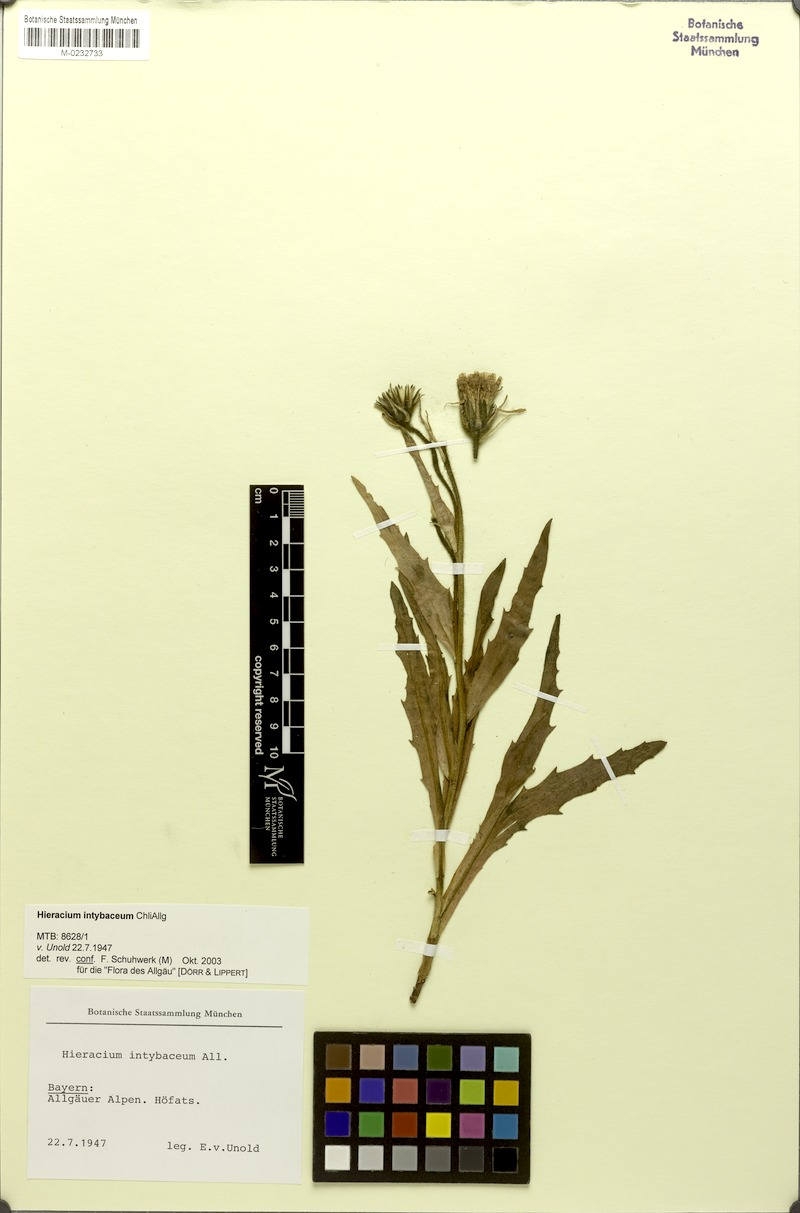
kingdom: Plantae
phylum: Tracheophyta
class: Magnoliopsida
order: Asterales
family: Asteraceae
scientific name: Asteraceae
